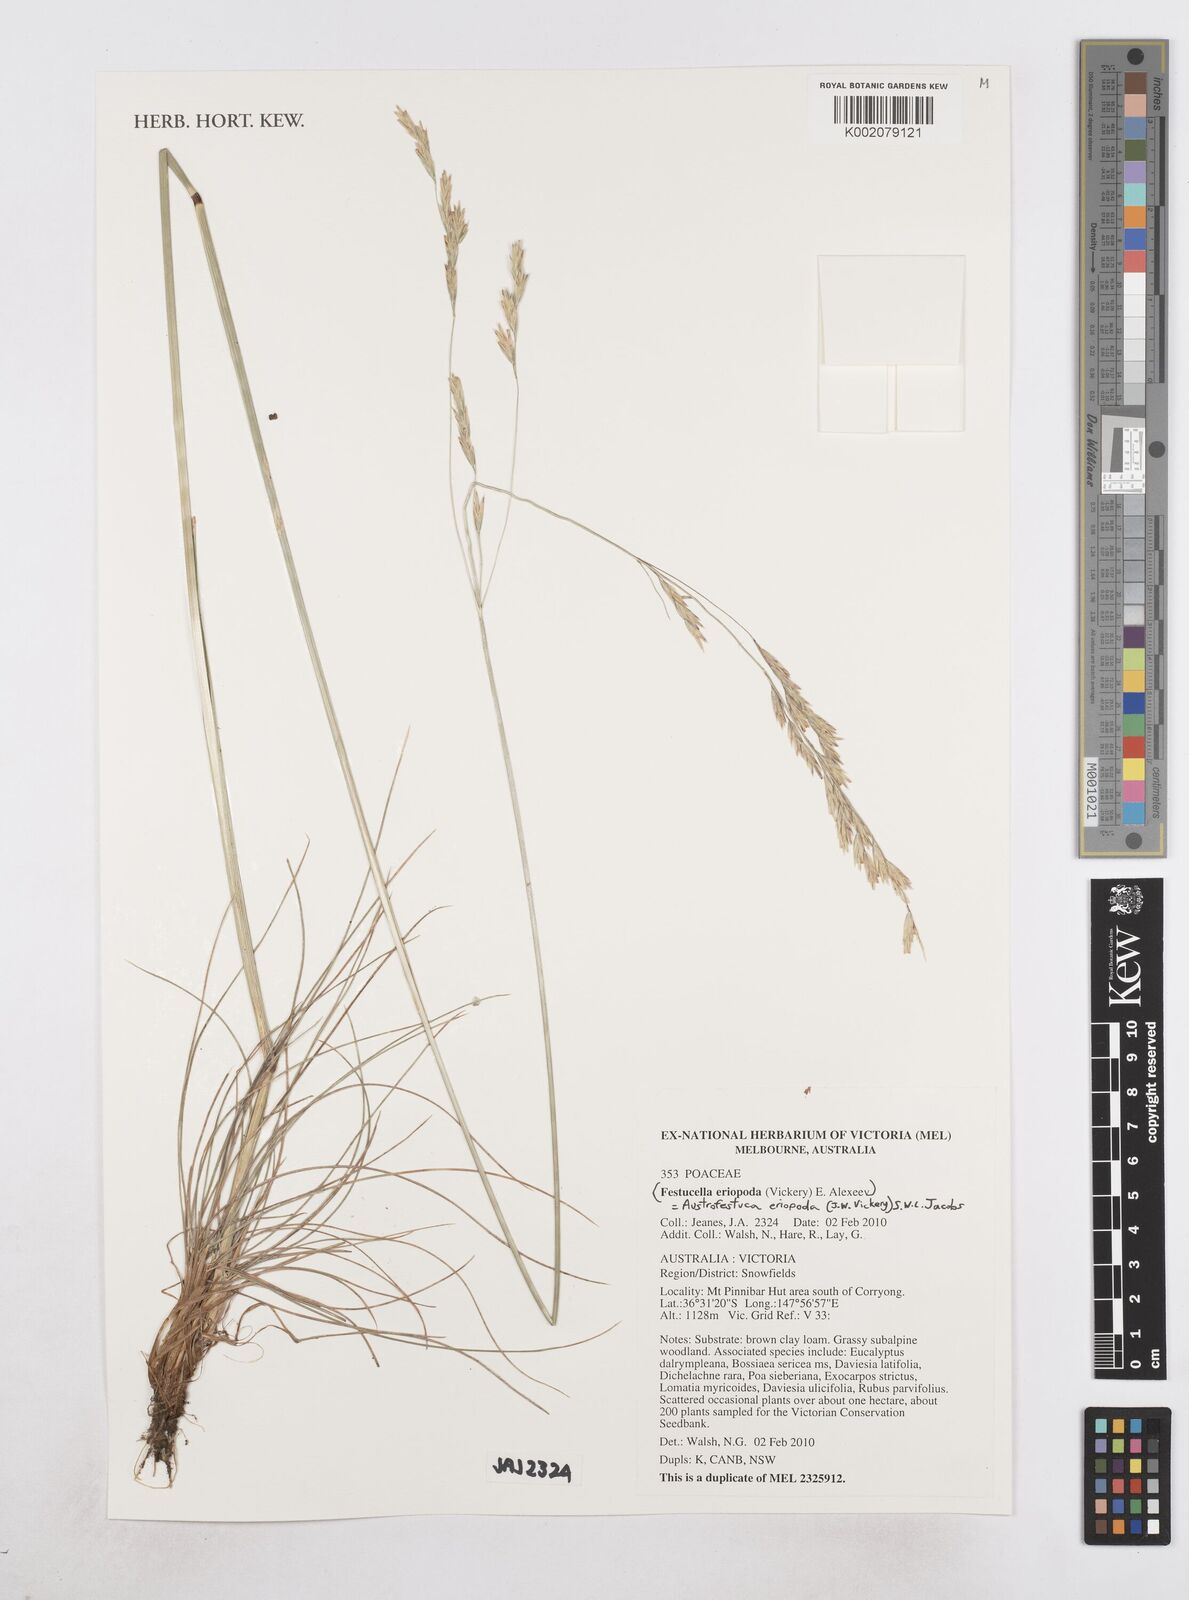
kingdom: Plantae
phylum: Tracheophyta
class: Liliopsida
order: Poales
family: Poaceae
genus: Hookerochloa
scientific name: Hookerochloa eriopoda
